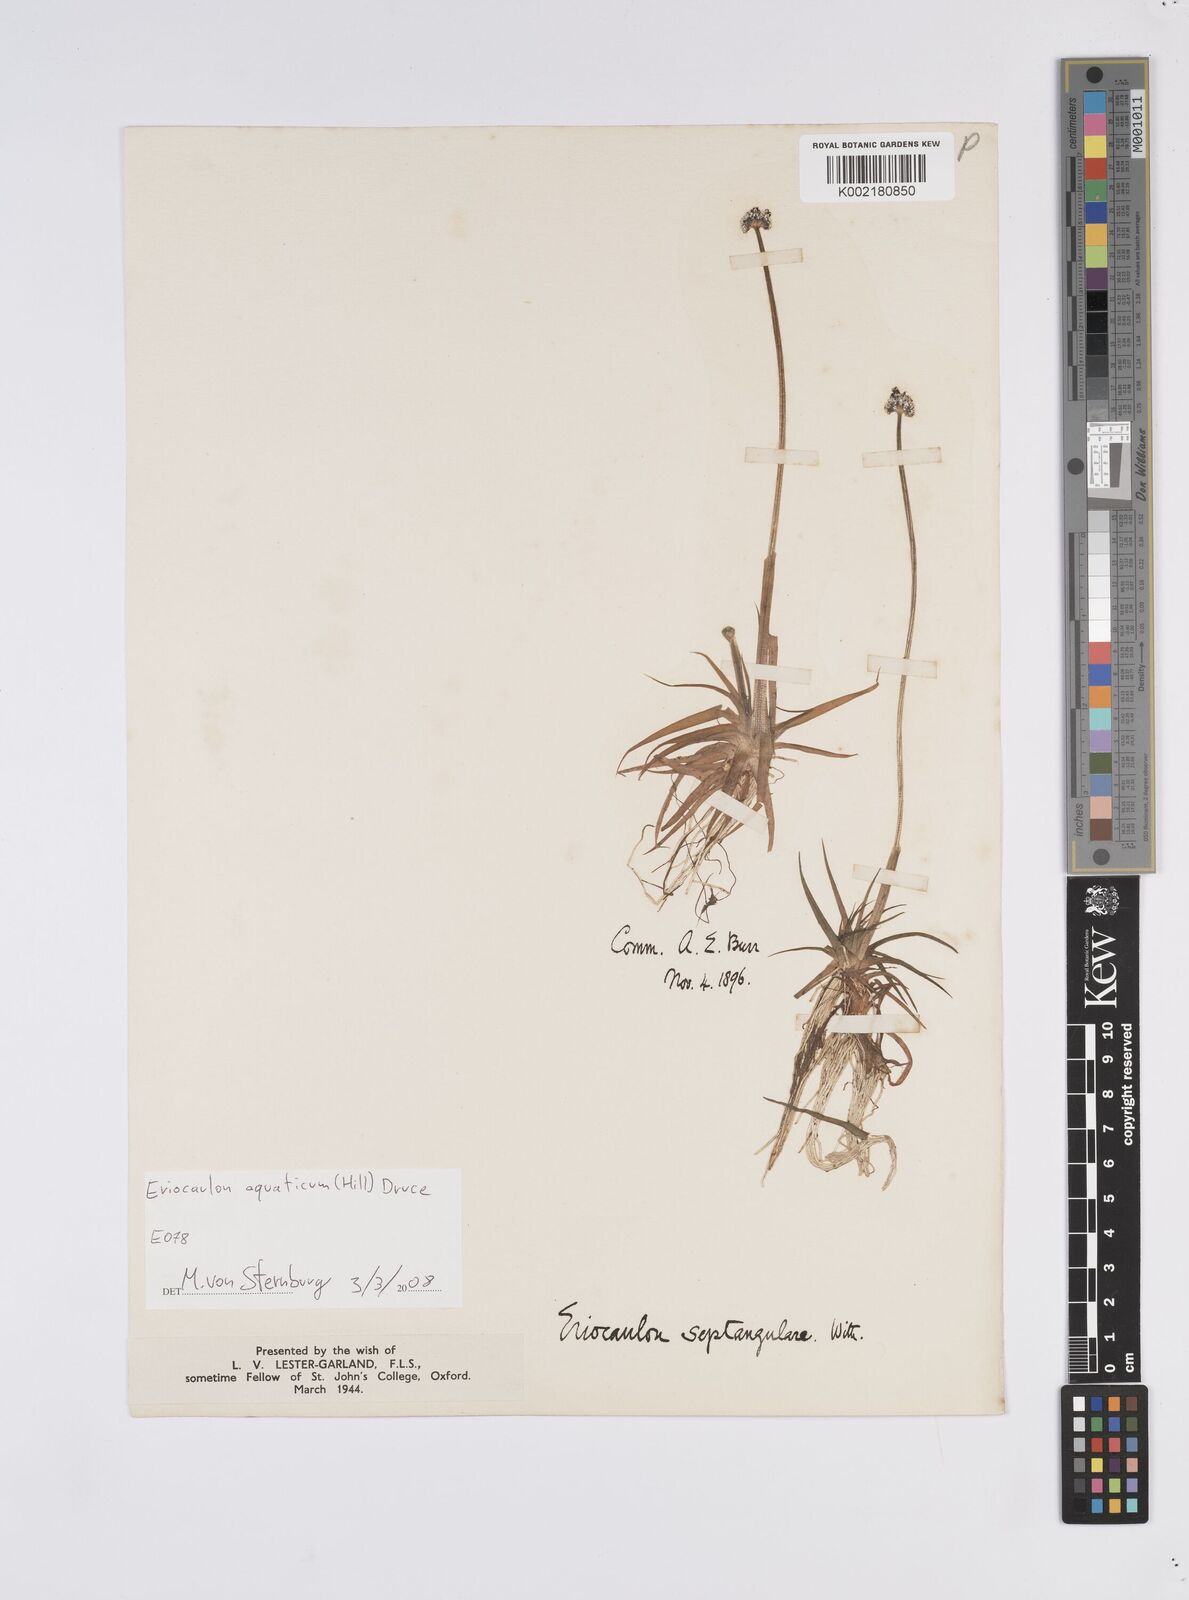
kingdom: Plantae
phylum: Tracheophyta
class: Liliopsida
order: Poales
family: Eriocaulaceae
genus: Eriocaulon
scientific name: Eriocaulon aquaticum
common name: Pipewort
